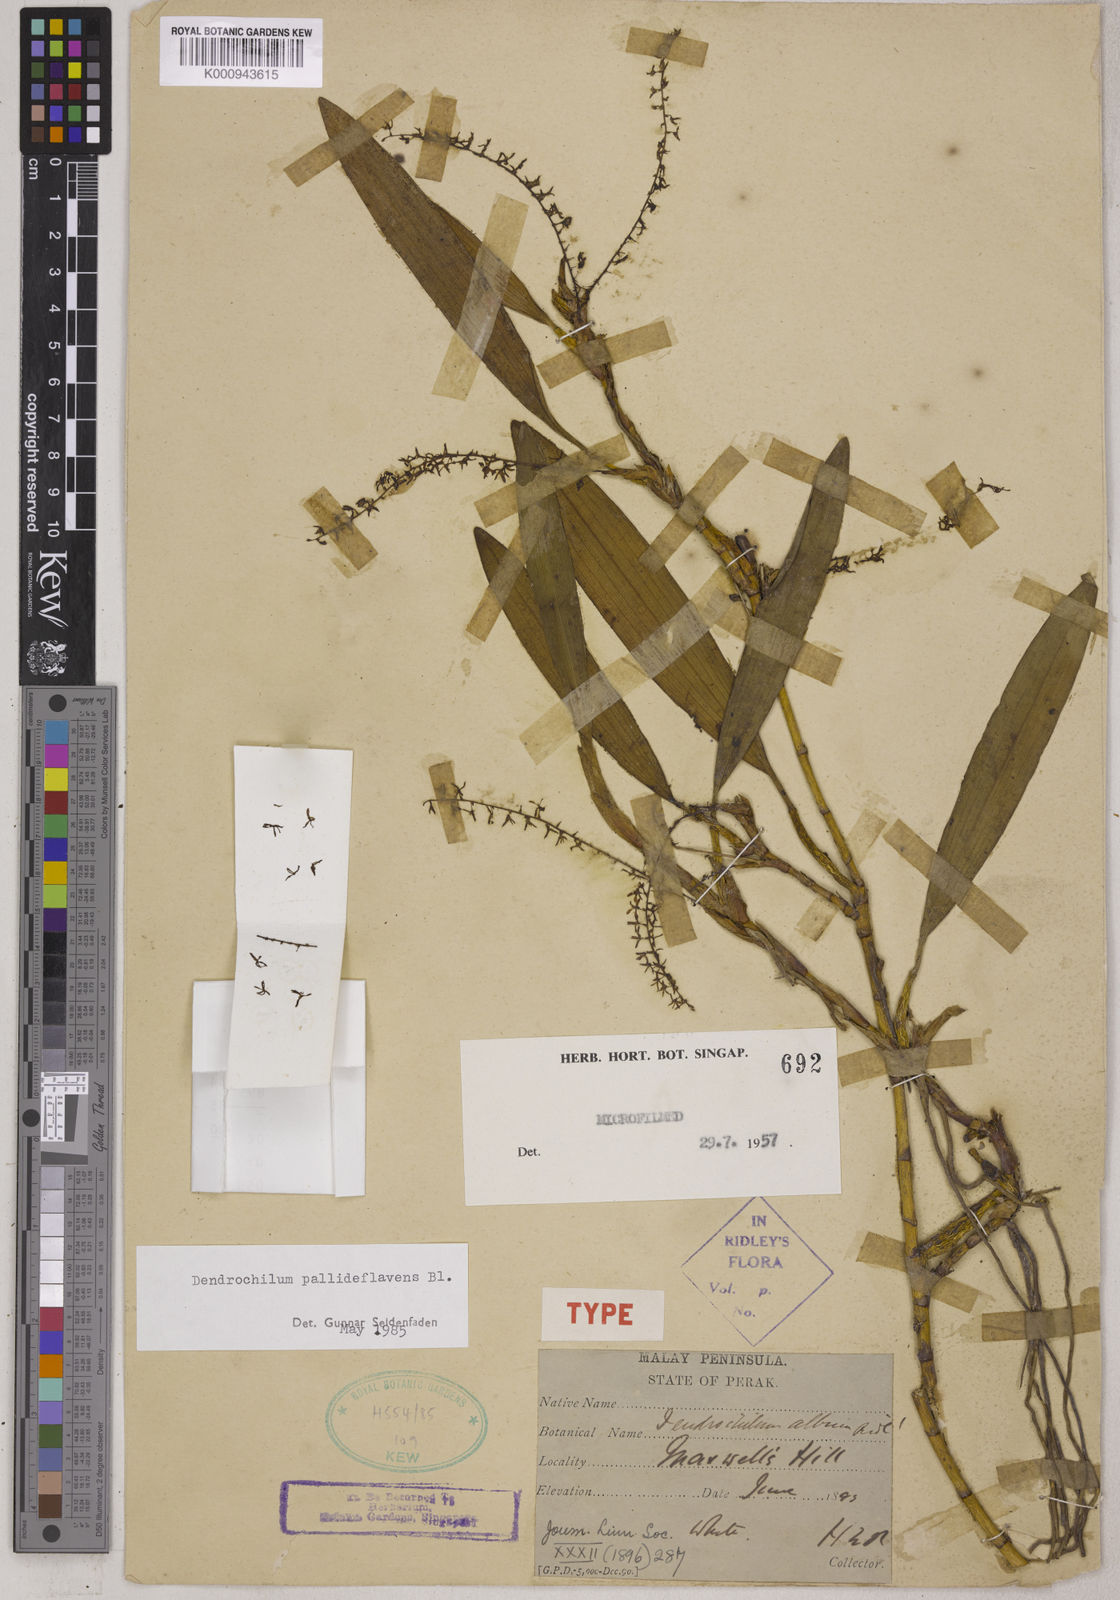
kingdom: Plantae
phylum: Tracheophyta
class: Liliopsida
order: Asparagales
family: Orchidaceae
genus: Coelogyne
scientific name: Coelogyne pallidiflavens
